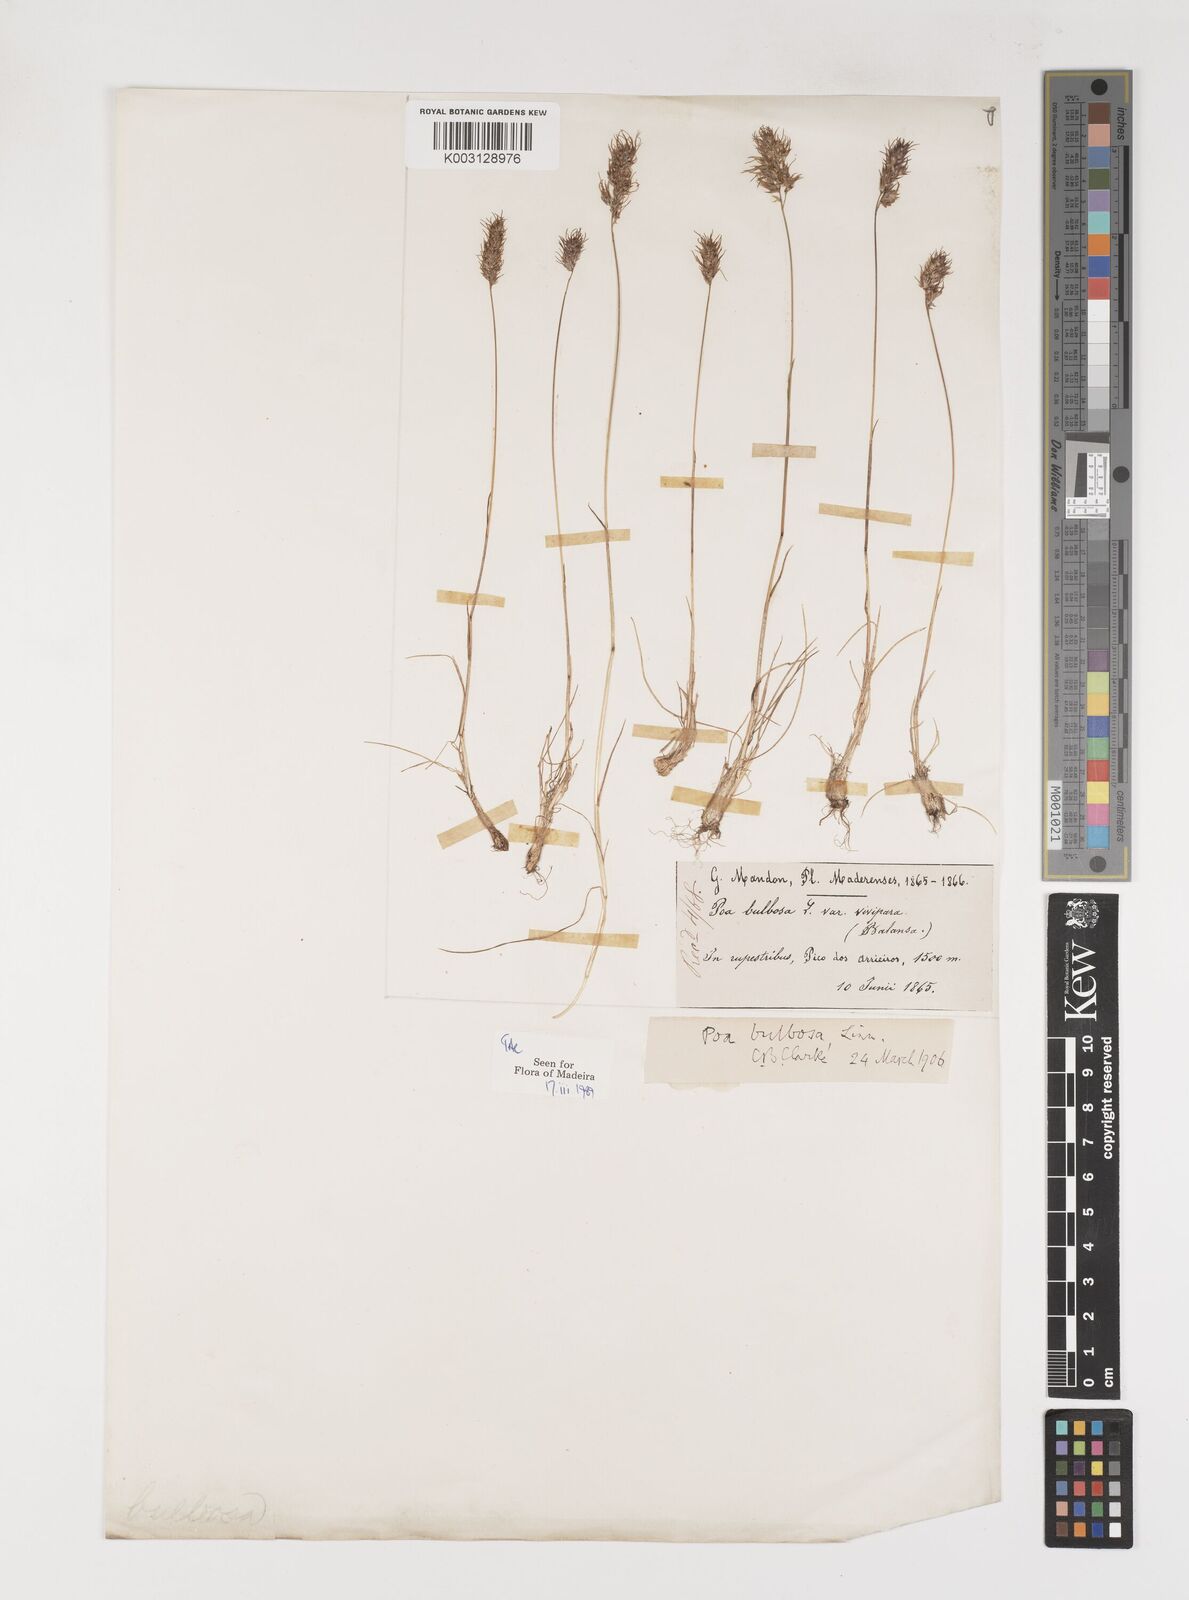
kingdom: Plantae
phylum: Tracheophyta
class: Liliopsida
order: Poales
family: Poaceae
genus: Poa
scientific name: Poa bulbosa
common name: Bulbous bluegrass
